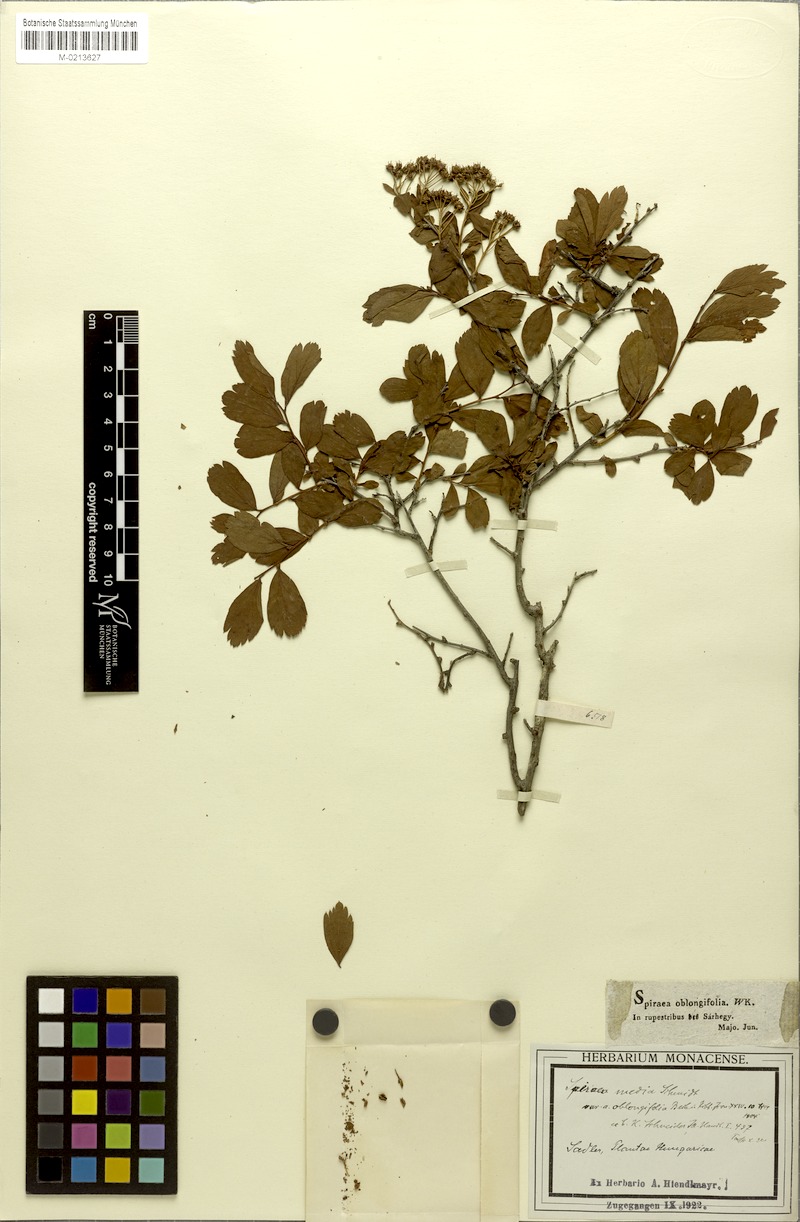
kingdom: Plantae
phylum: Tracheophyta
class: Magnoliopsida
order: Rosales
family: Rosaceae
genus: Spiraea
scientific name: Spiraea media
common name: Russian spiraea
